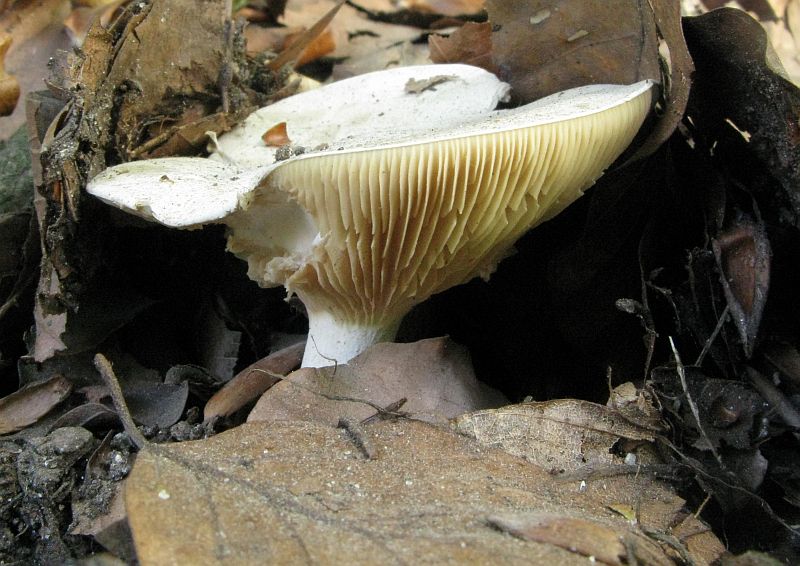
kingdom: Fungi
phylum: Basidiomycota
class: Agaricomycetes
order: Agaricales
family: Entolomataceae
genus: Clitopilus
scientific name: Clitopilus prunulus
